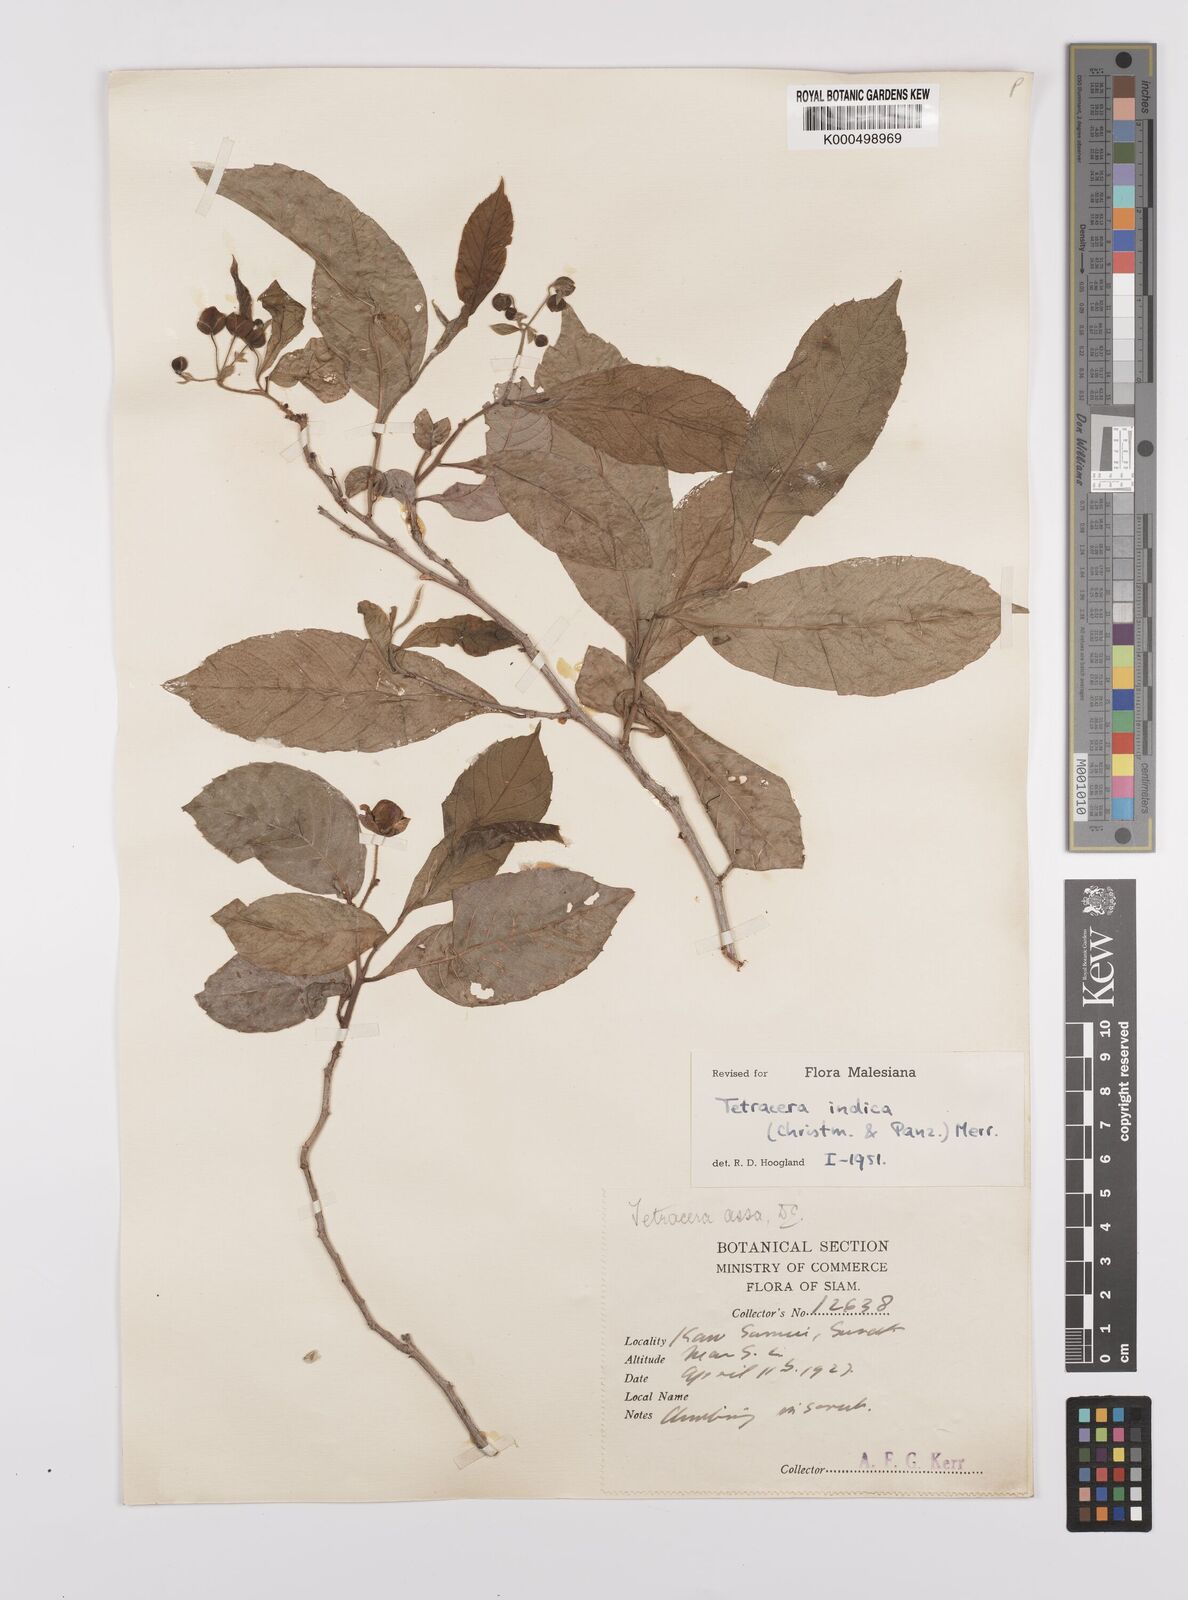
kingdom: Plantae
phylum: Tracheophyta
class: Magnoliopsida
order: Dilleniales
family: Dilleniaceae
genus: Tetracera
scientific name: Tetracera indica
